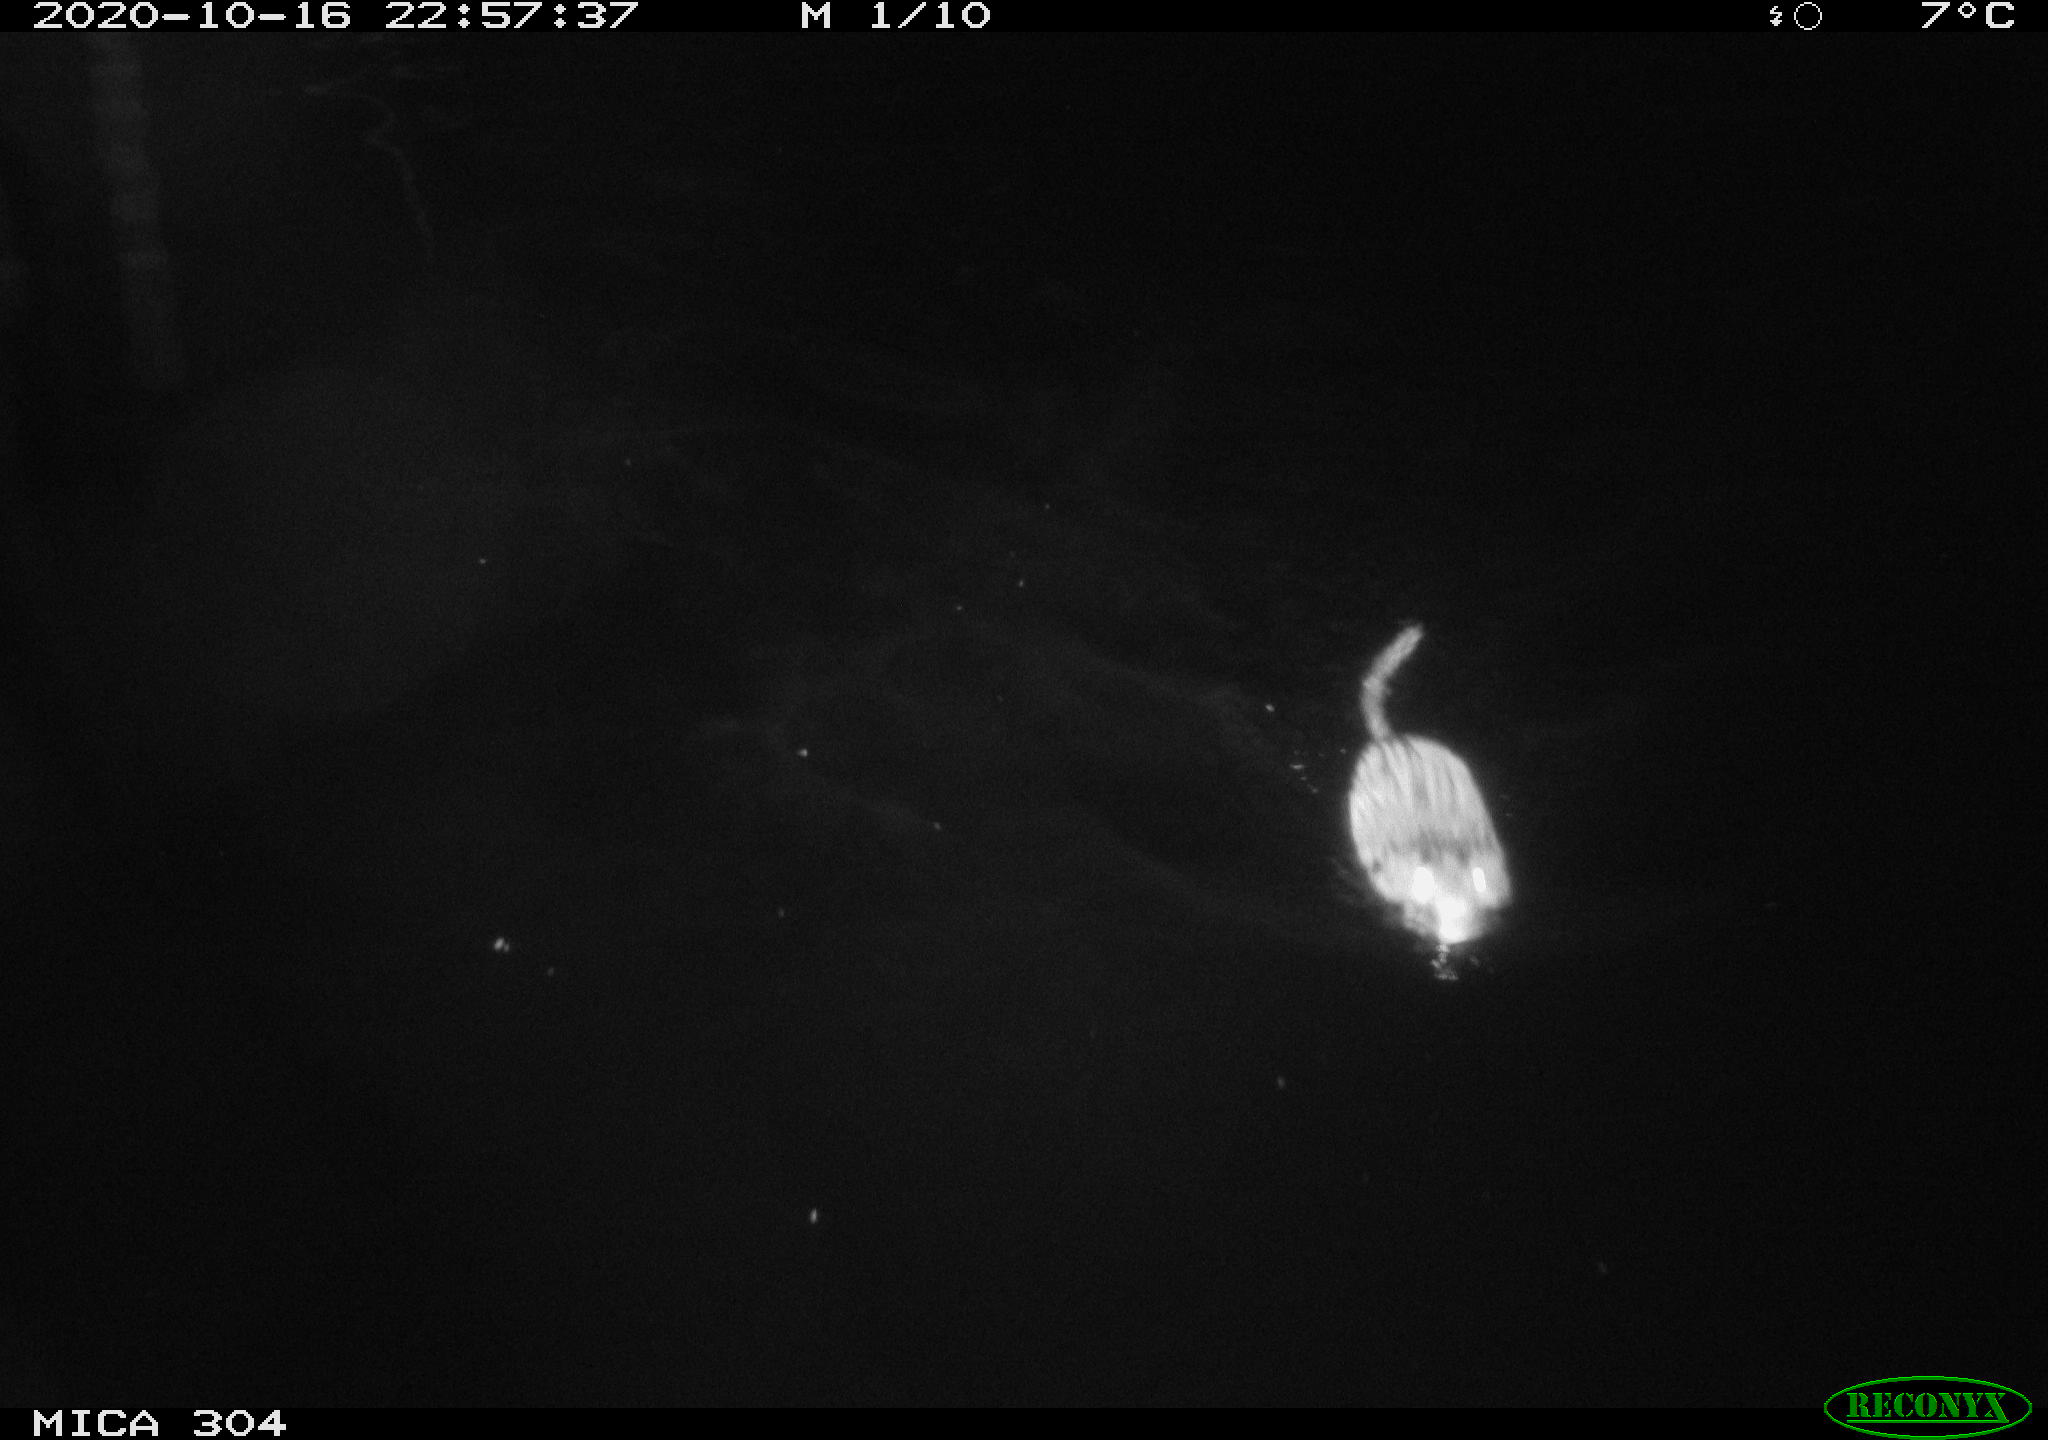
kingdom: Animalia
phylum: Chordata
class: Mammalia
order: Rodentia
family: Cricetidae
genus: Ondatra
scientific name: Ondatra zibethicus
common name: Muskrat
